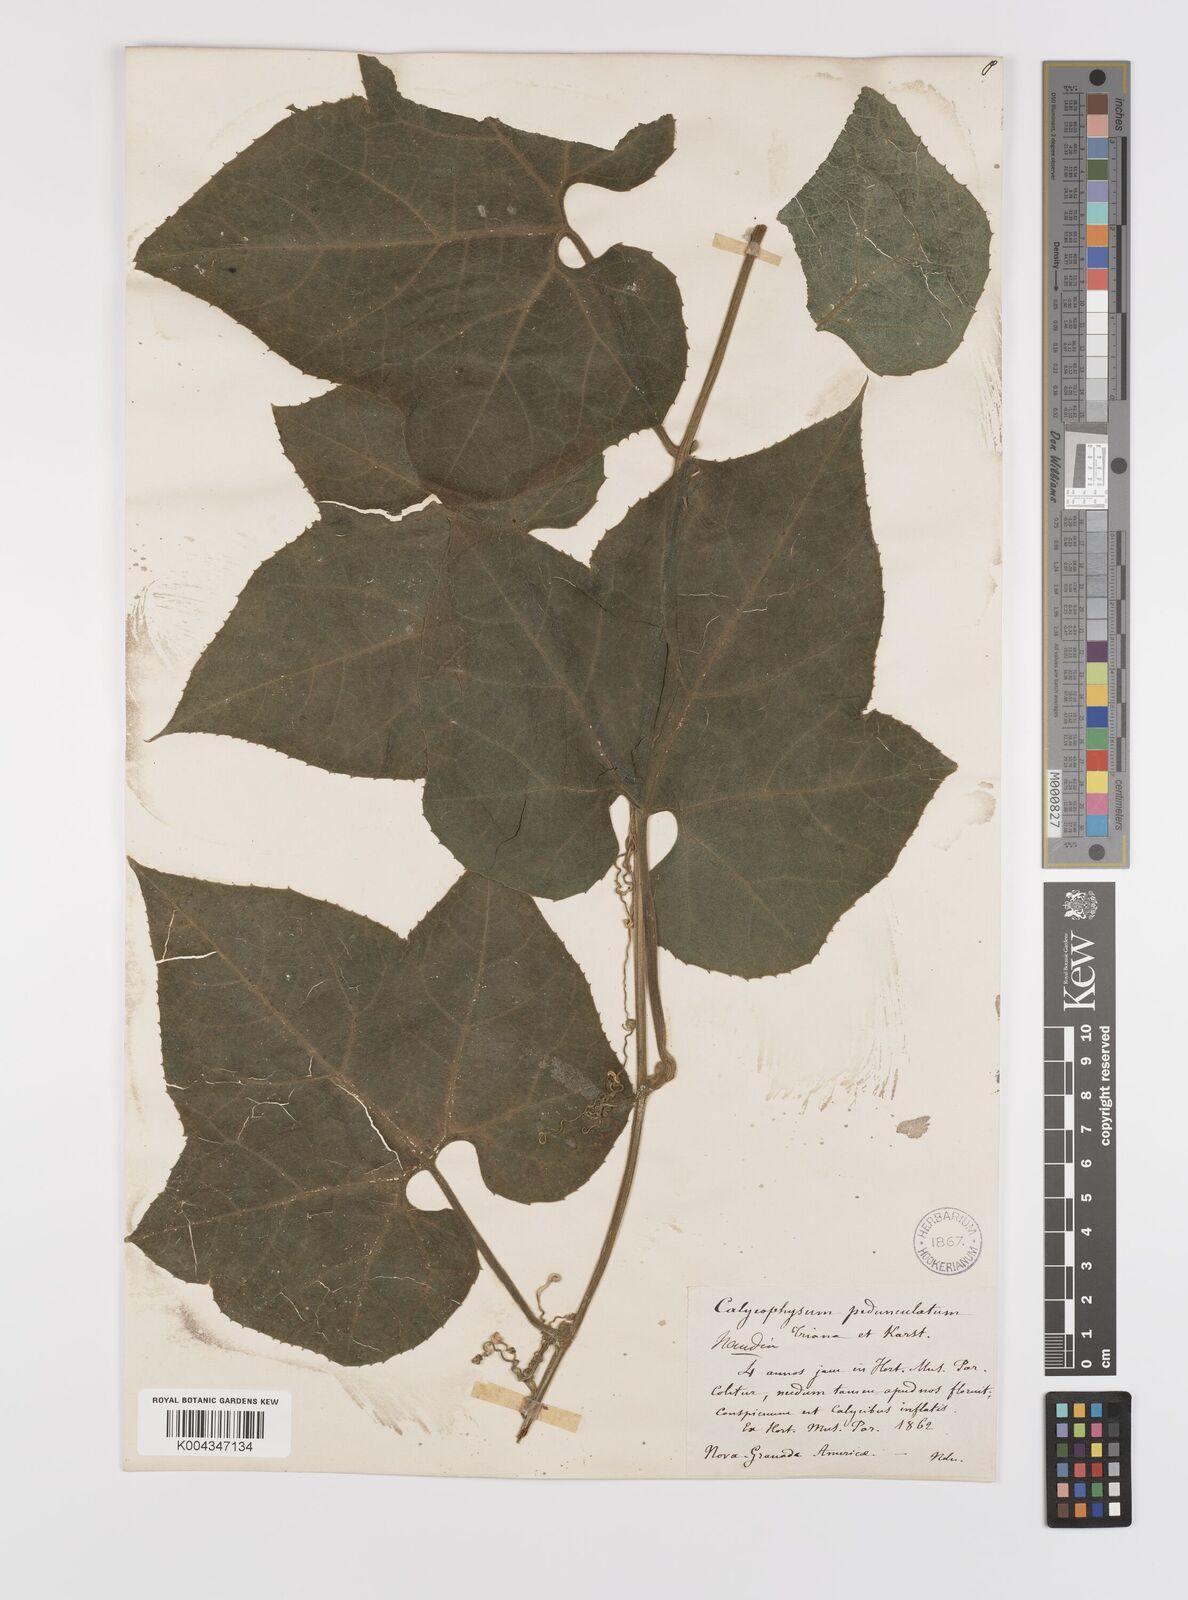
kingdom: Plantae
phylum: Tracheophyta
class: Magnoliopsida
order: Cucurbitales
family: Cucurbitaceae
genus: Calycophysum
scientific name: Calycophysum pedunculatum
